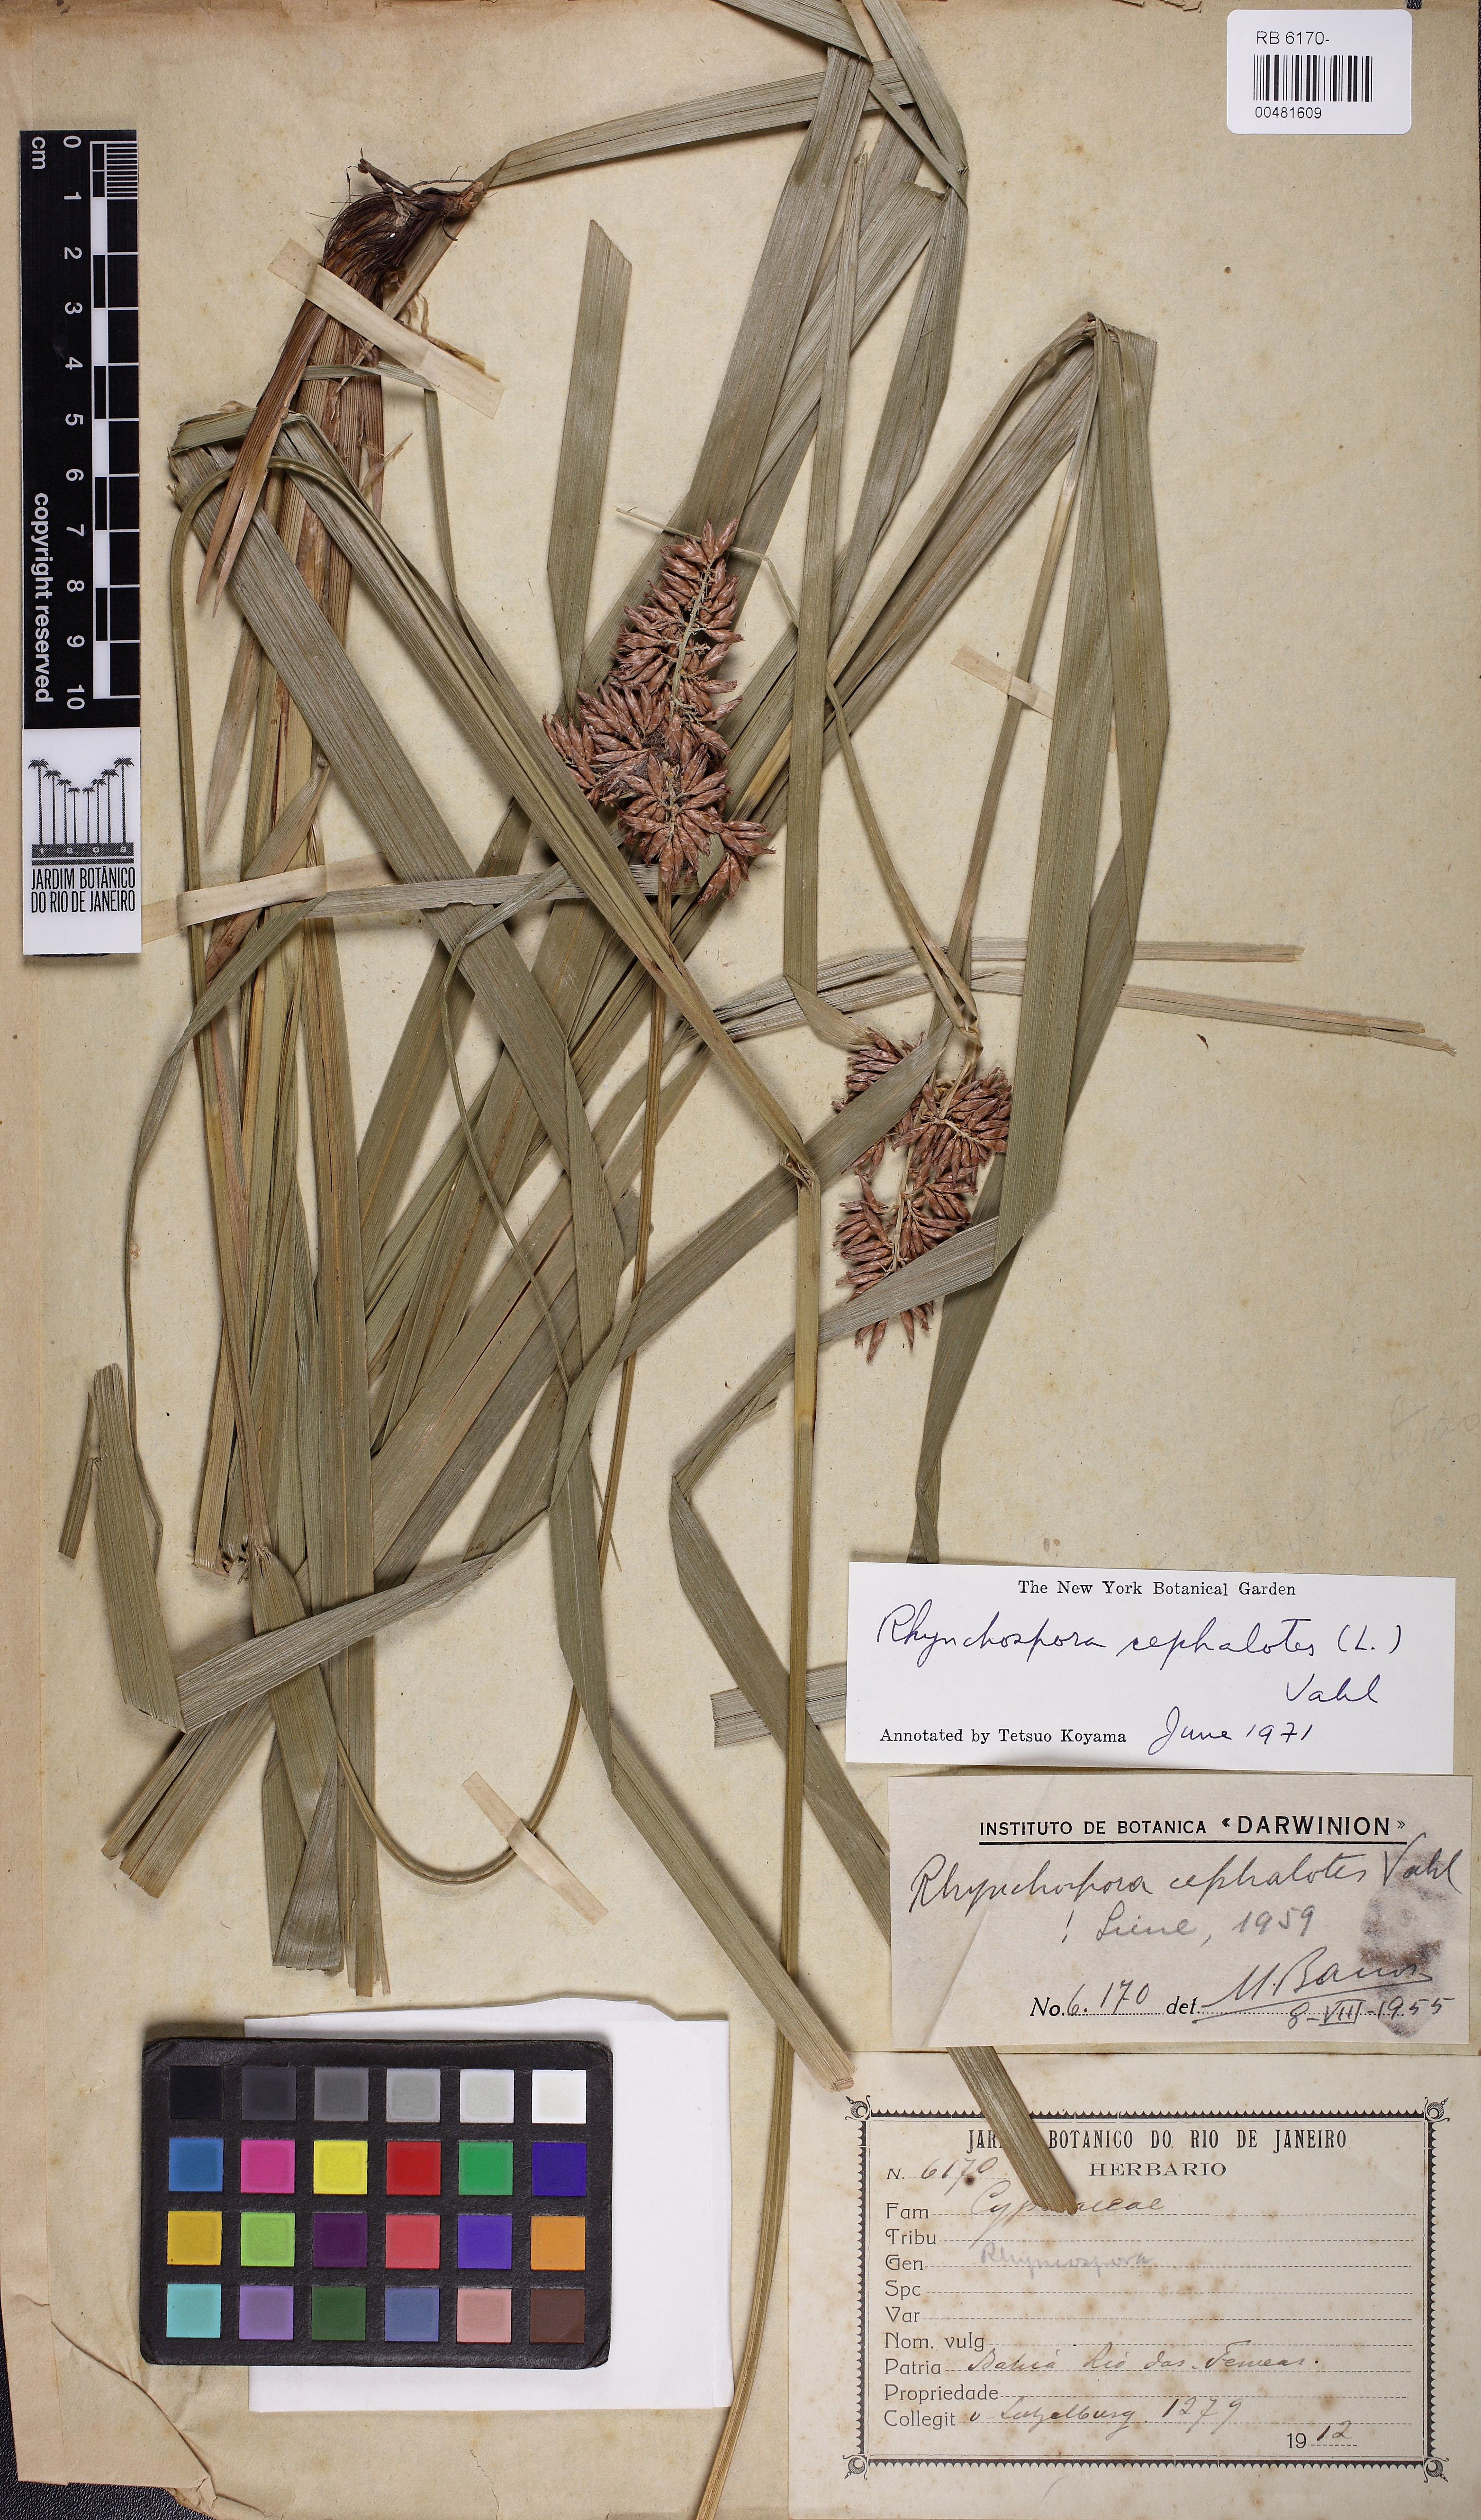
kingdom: Plantae
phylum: Tracheophyta
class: Liliopsida
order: Poales
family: Cyperaceae
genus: Rhynchospora
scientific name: Rhynchospora cephalotes
